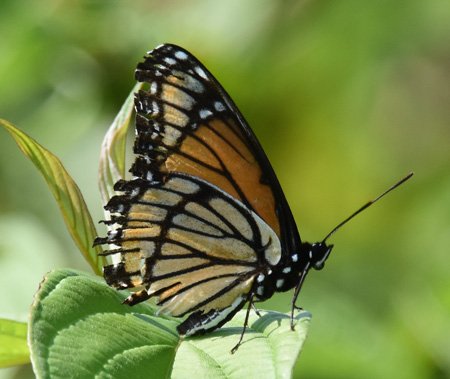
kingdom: Animalia
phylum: Arthropoda
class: Insecta
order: Lepidoptera
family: Nymphalidae
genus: Limenitis
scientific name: Limenitis archippus
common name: Viceroy
